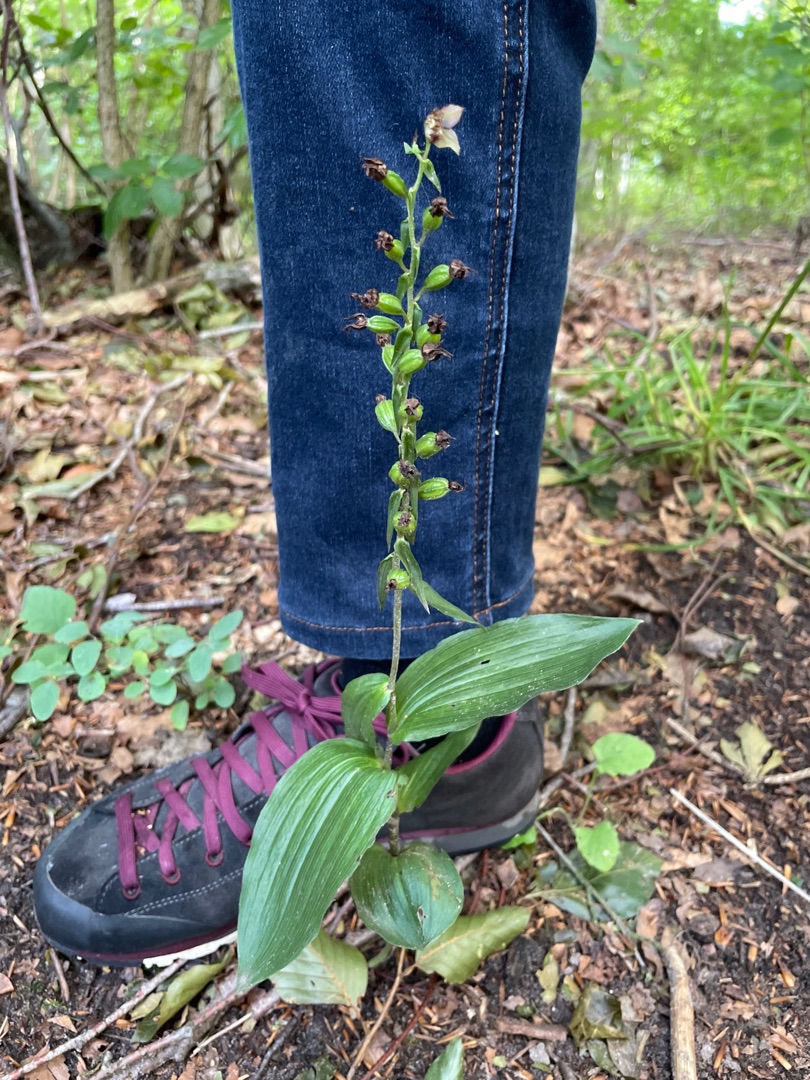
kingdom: Plantae
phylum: Tracheophyta
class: Liliopsida
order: Asparagales
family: Orchidaceae
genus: Epipactis
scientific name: Epipactis helleborine
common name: Skov-hullæbe
